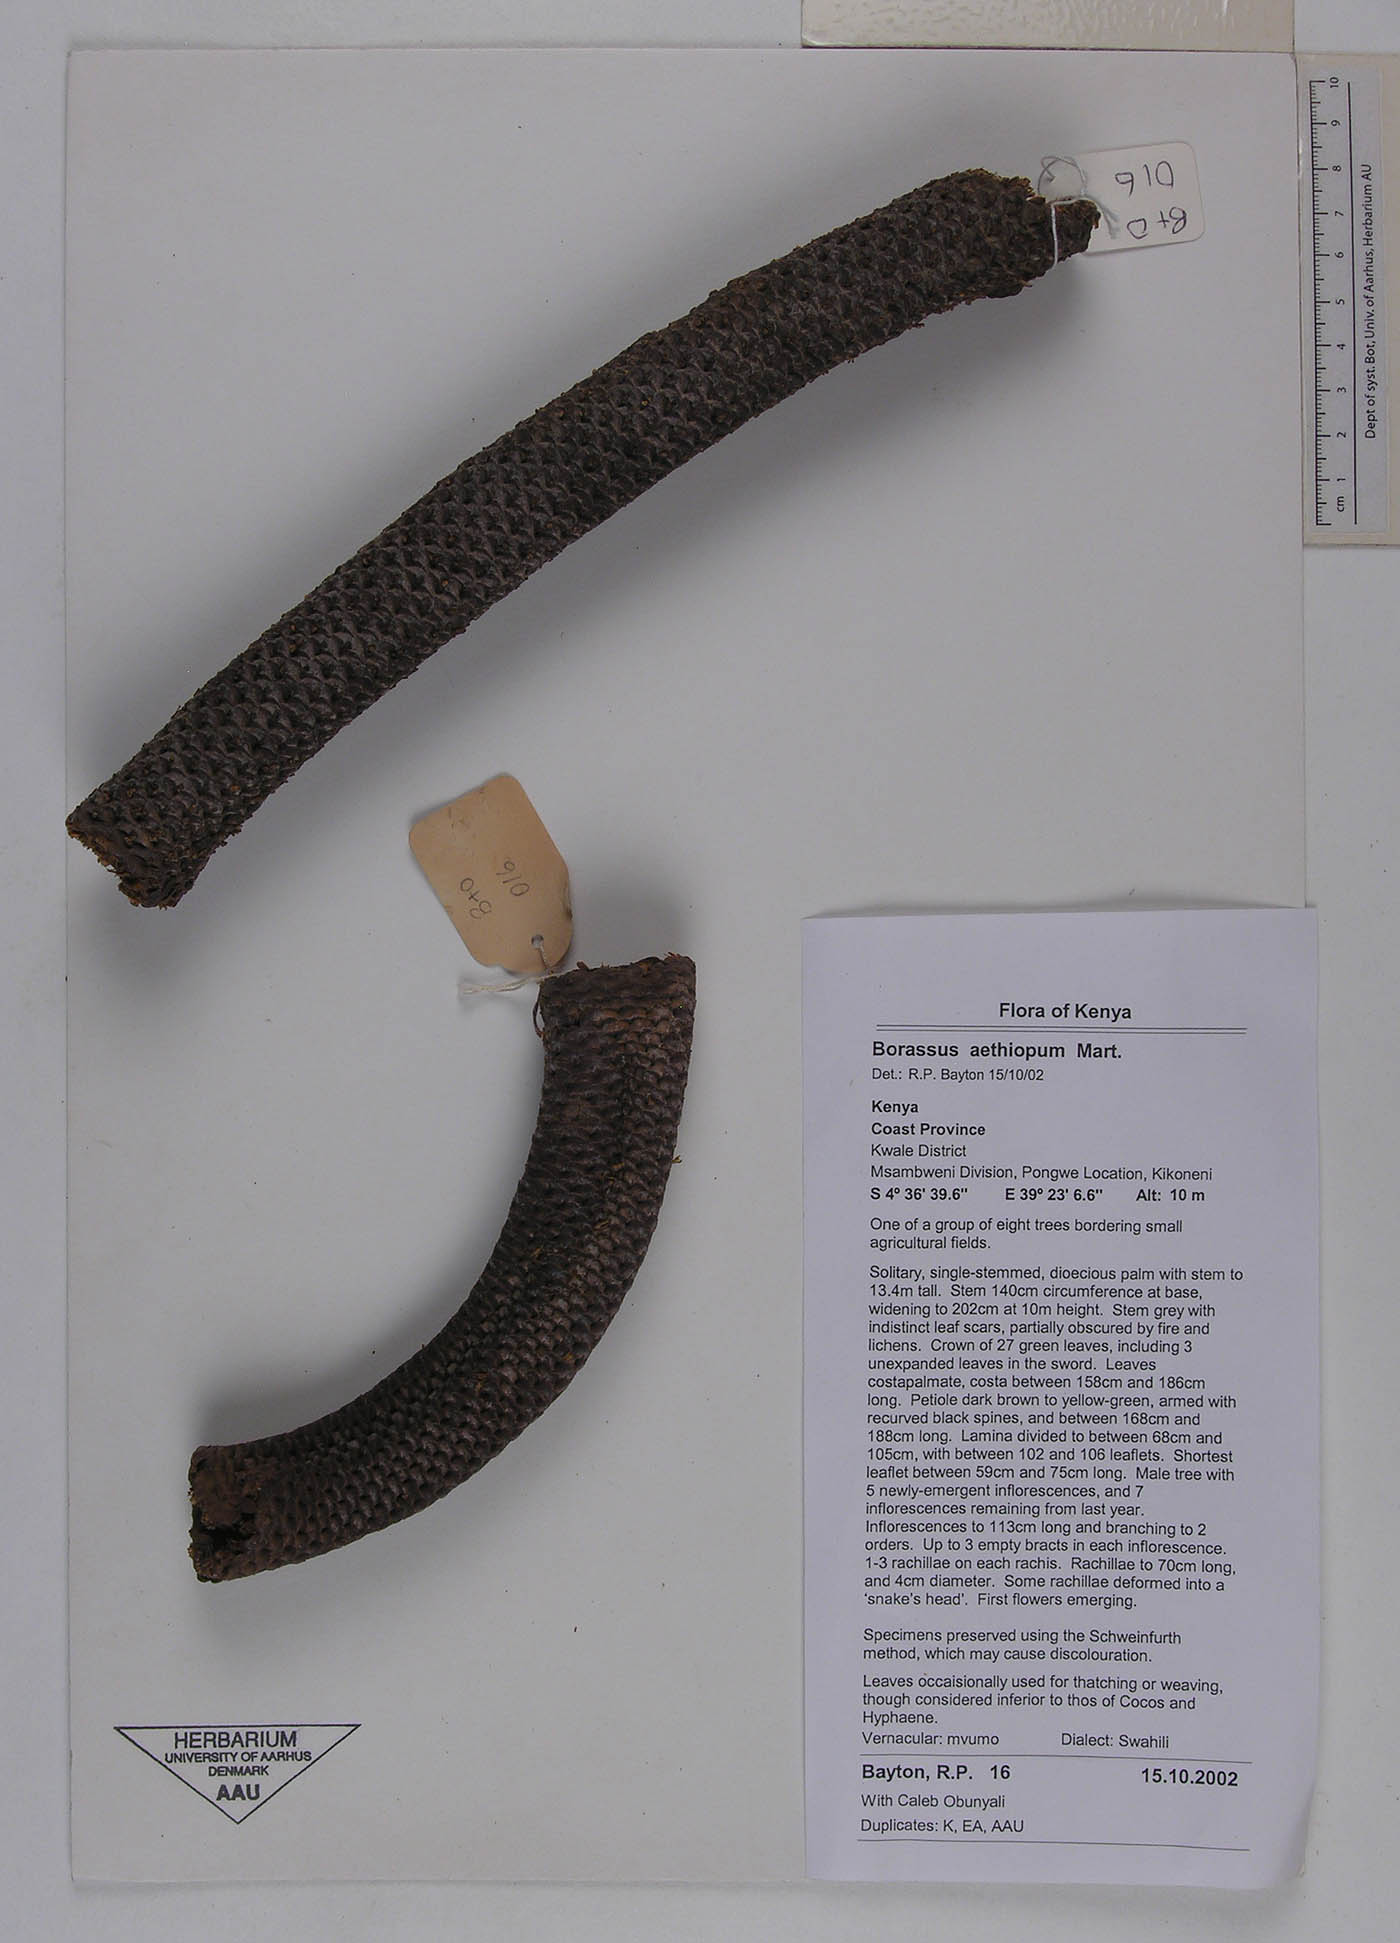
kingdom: Plantae
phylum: Tracheophyta
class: Liliopsida
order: Arecales
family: Arecaceae
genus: Borassus
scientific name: Borassus aethiopum
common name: Elephant palm
